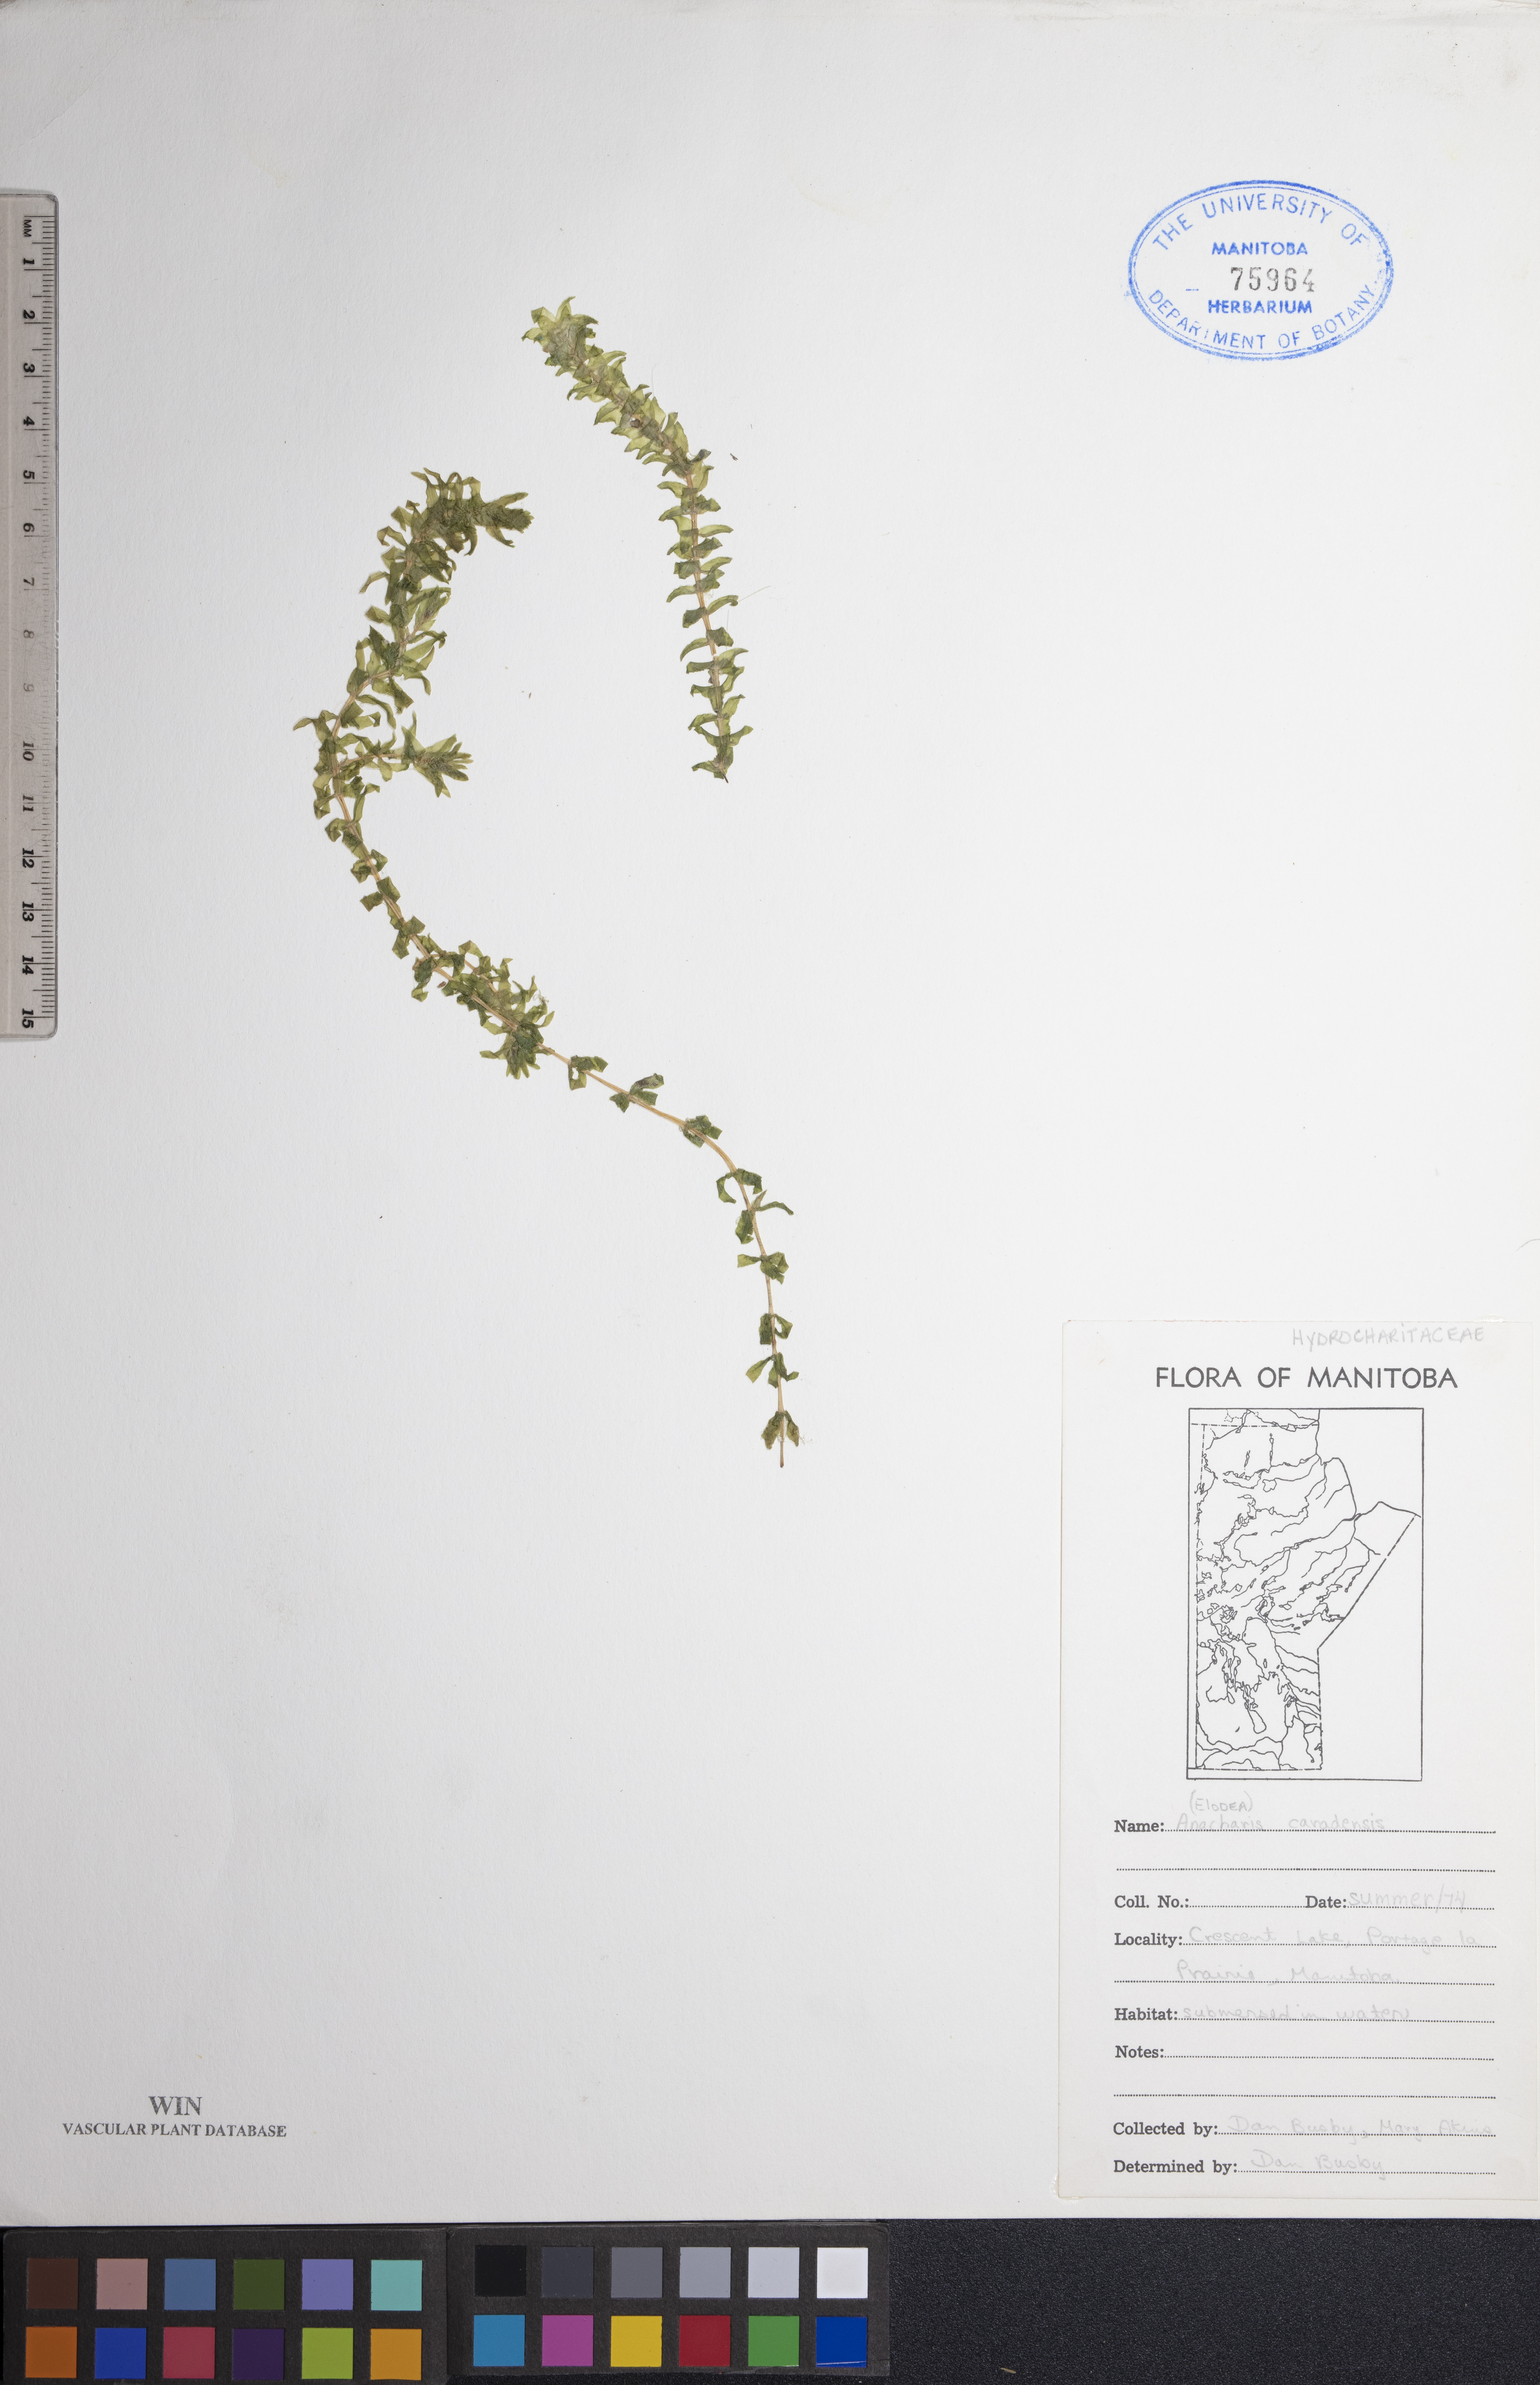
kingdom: Plantae
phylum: Tracheophyta
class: Liliopsida
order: Alismatales
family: Hydrocharitaceae
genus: Elodea
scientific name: Elodea canadensis
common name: Canadian waterweed
